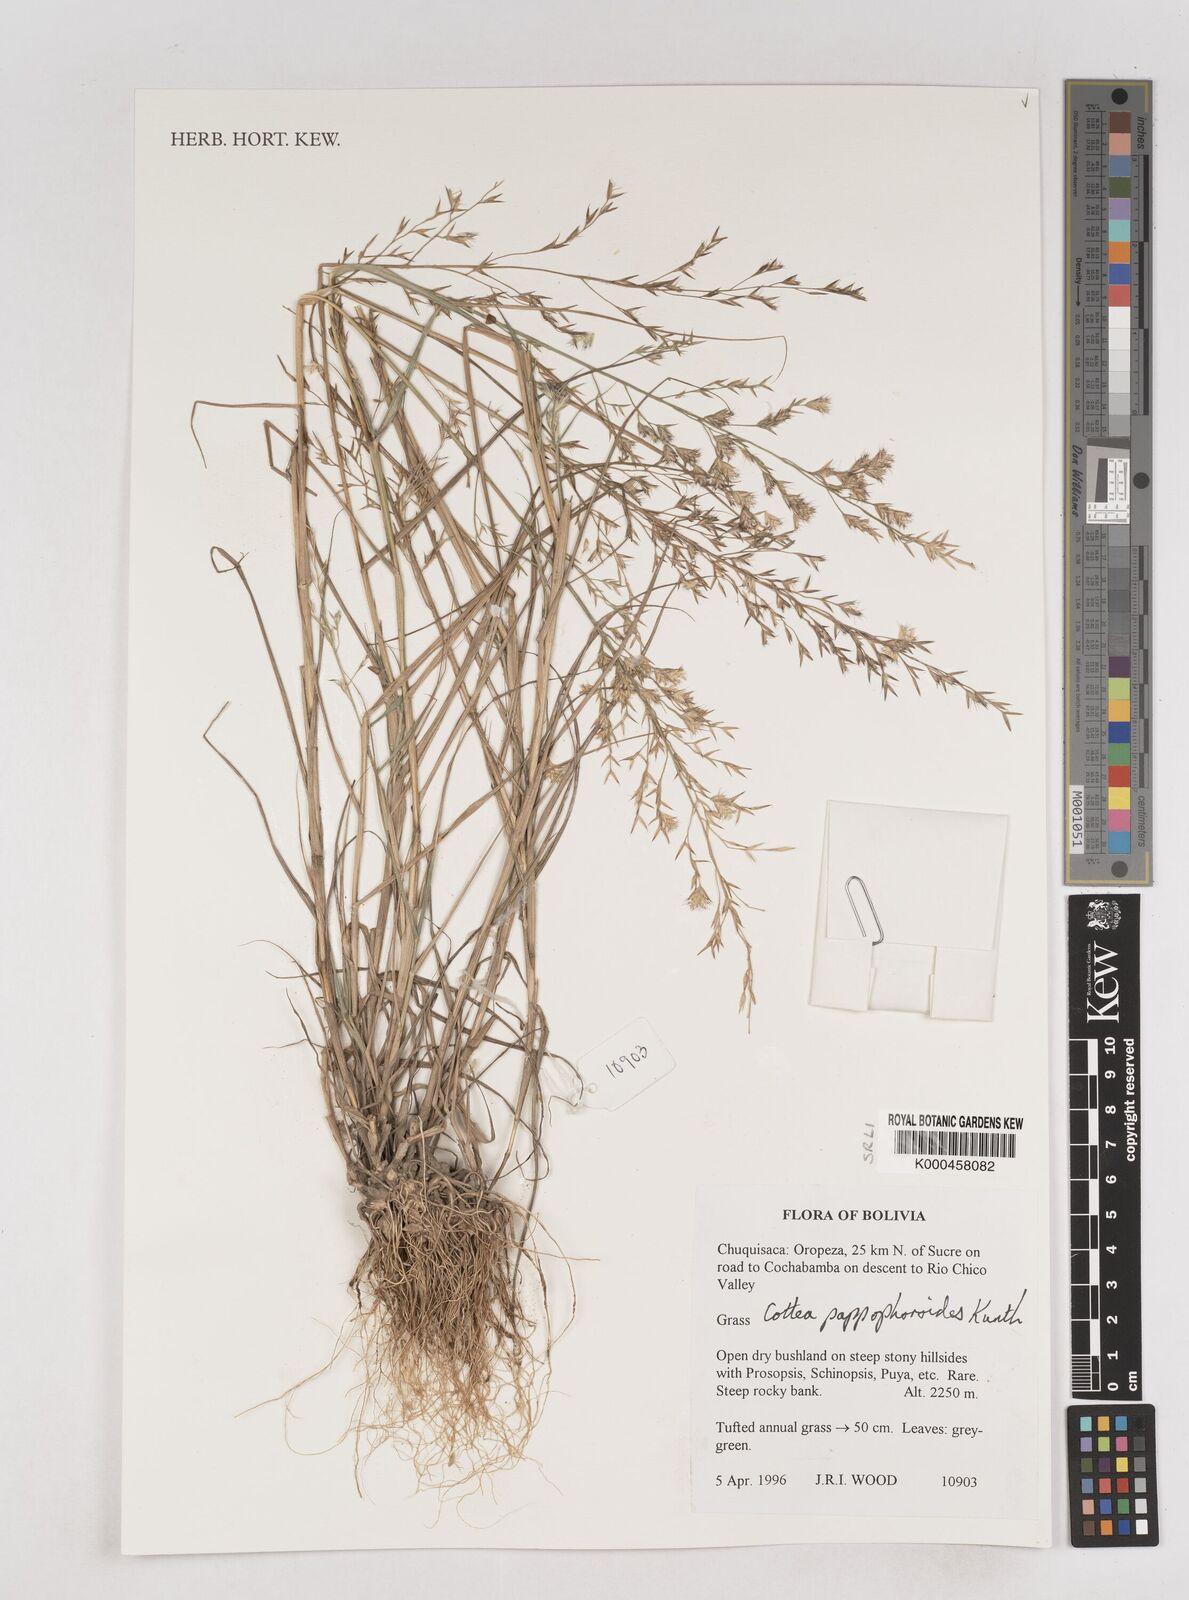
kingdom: Plantae
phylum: Tracheophyta
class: Liliopsida
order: Poales
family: Poaceae
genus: Cottea
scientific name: Cottea
